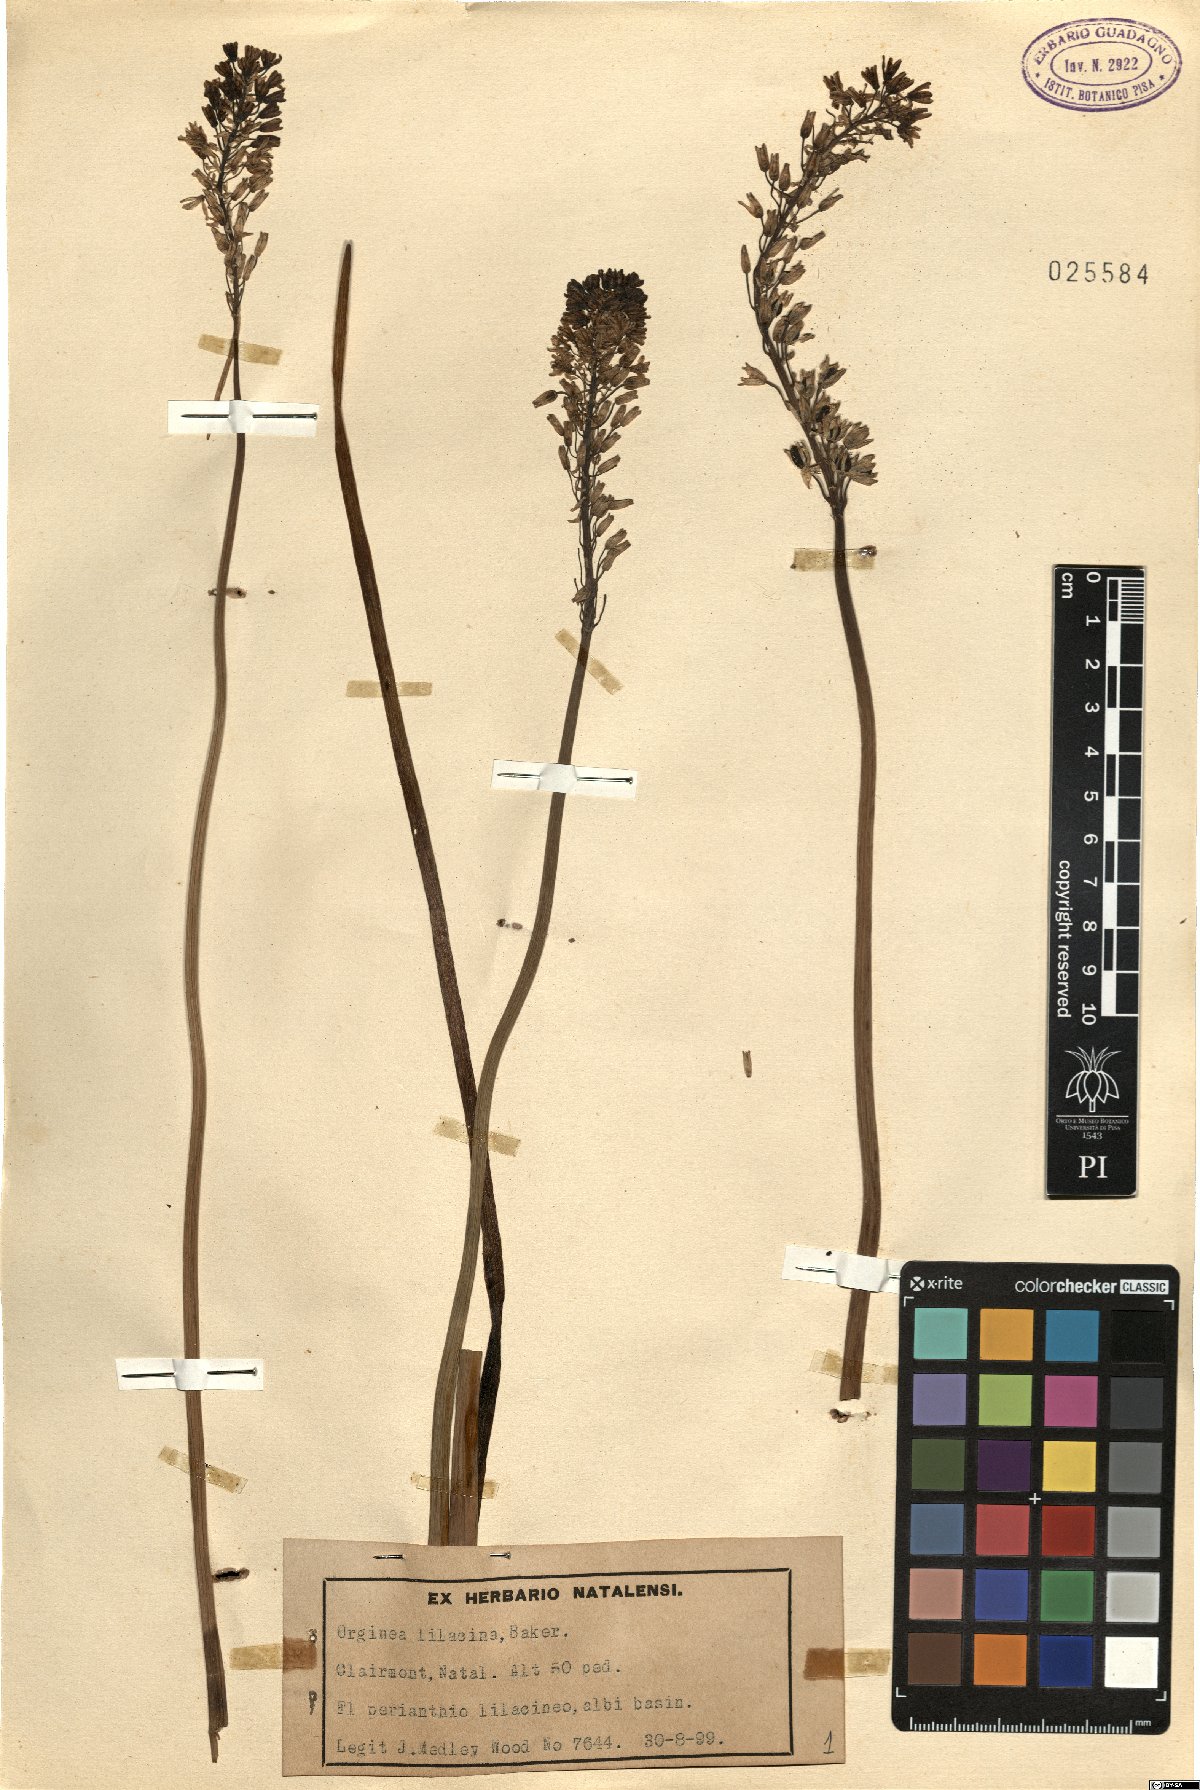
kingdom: Plantae
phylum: Tracheophyta
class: Liliopsida
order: Asparagales
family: Asparagaceae
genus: Drimia
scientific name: Drimia macrocentra
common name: Natal slangkop
